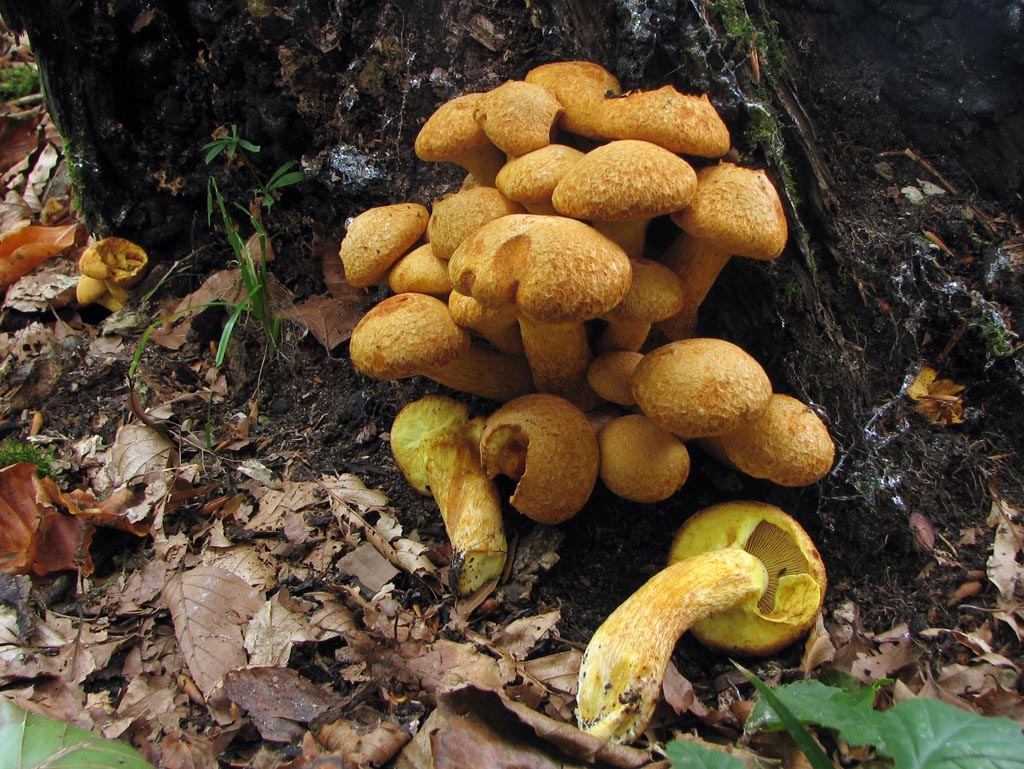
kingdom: Fungi
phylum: Basidiomycota
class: Agaricomycetes
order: Agaricales
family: Hymenogastraceae
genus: Gymnopilus
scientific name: Gymnopilus spectabilis
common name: fibret flammehat
